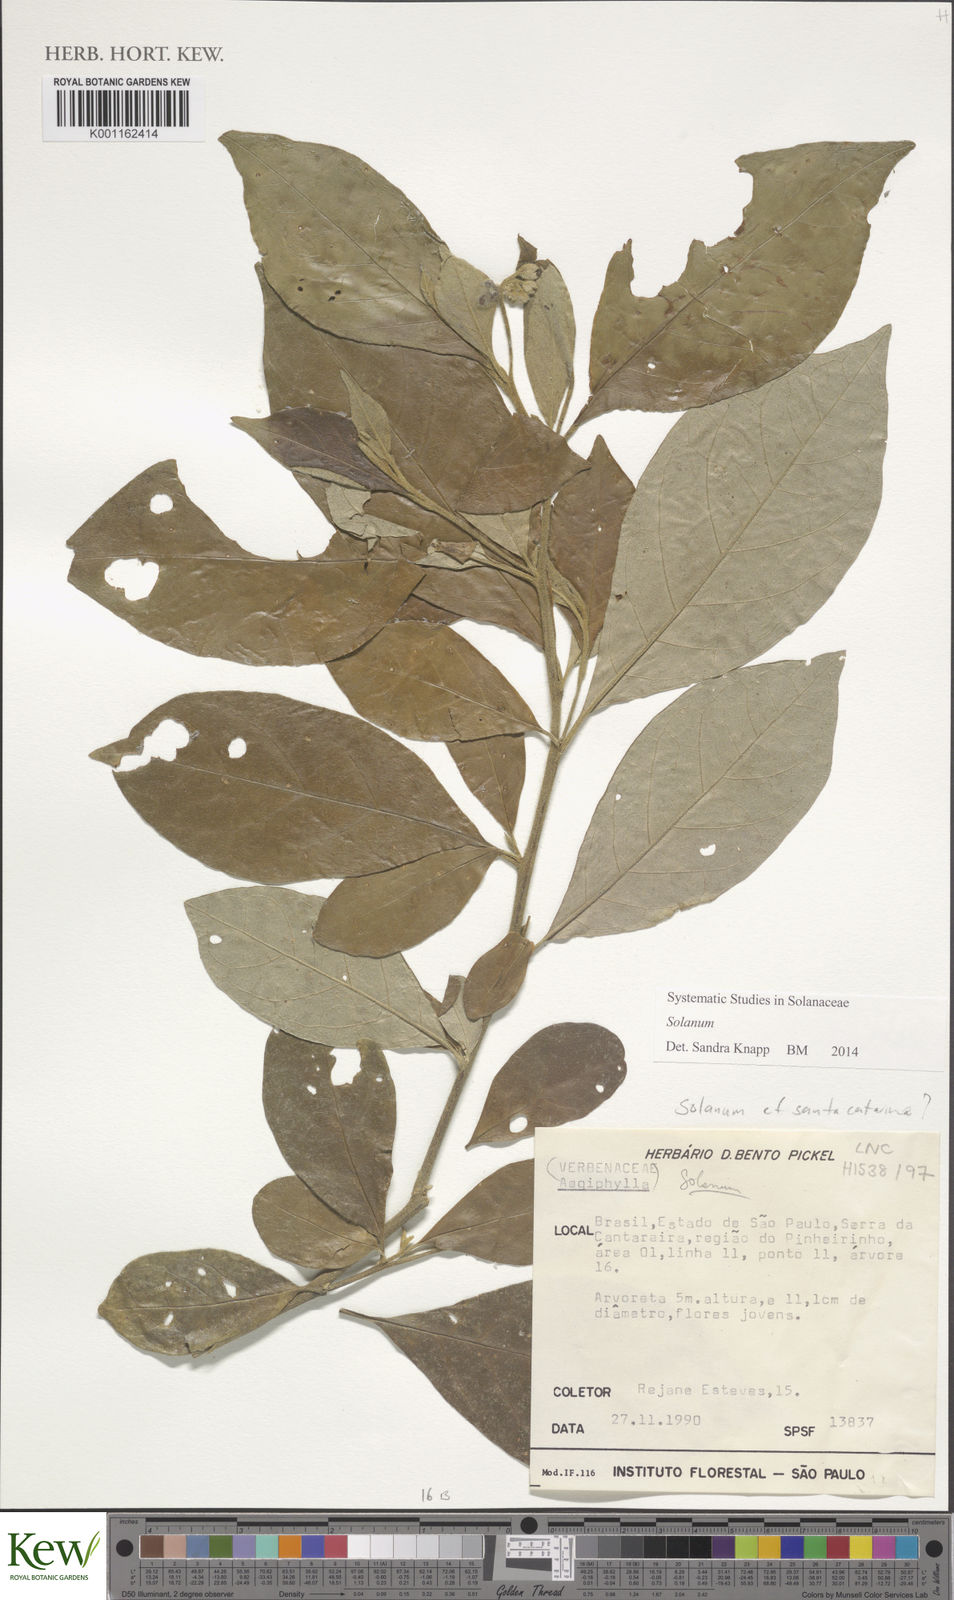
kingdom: Plantae
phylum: Tracheophyta
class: Magnoliopsida
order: Solanales
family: Solanaceae
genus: Solanum
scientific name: Solanum schlechtendalianum
